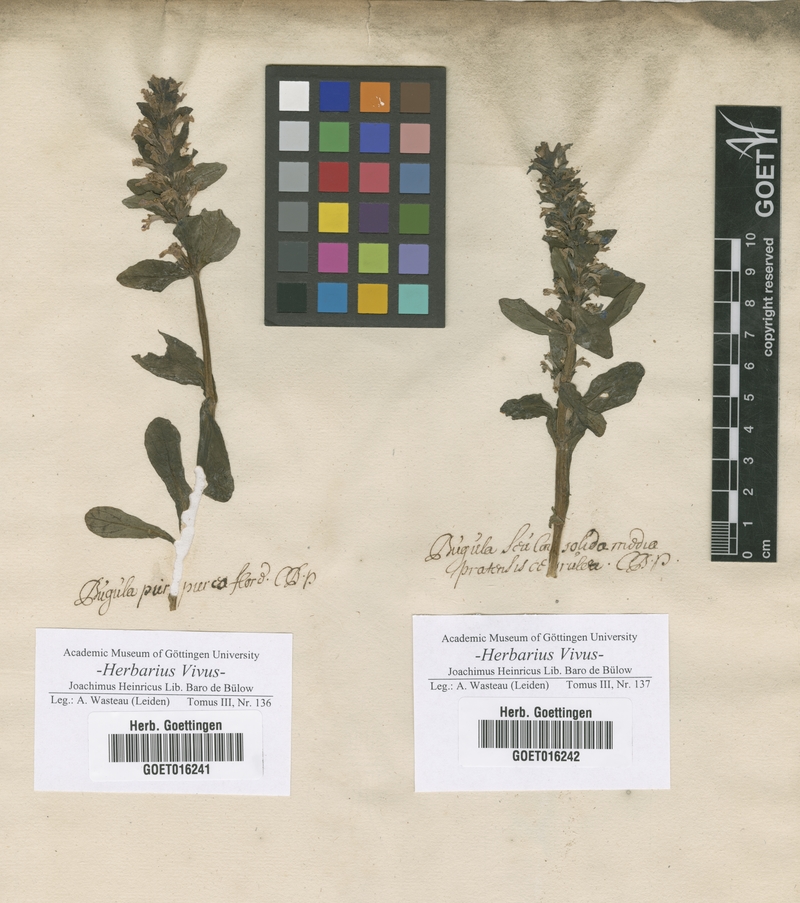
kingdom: Animalia
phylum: Bryozoa
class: Gymnolaemata
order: Cheilostomatida
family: Bugulidae
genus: Bugula
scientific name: Bugula
